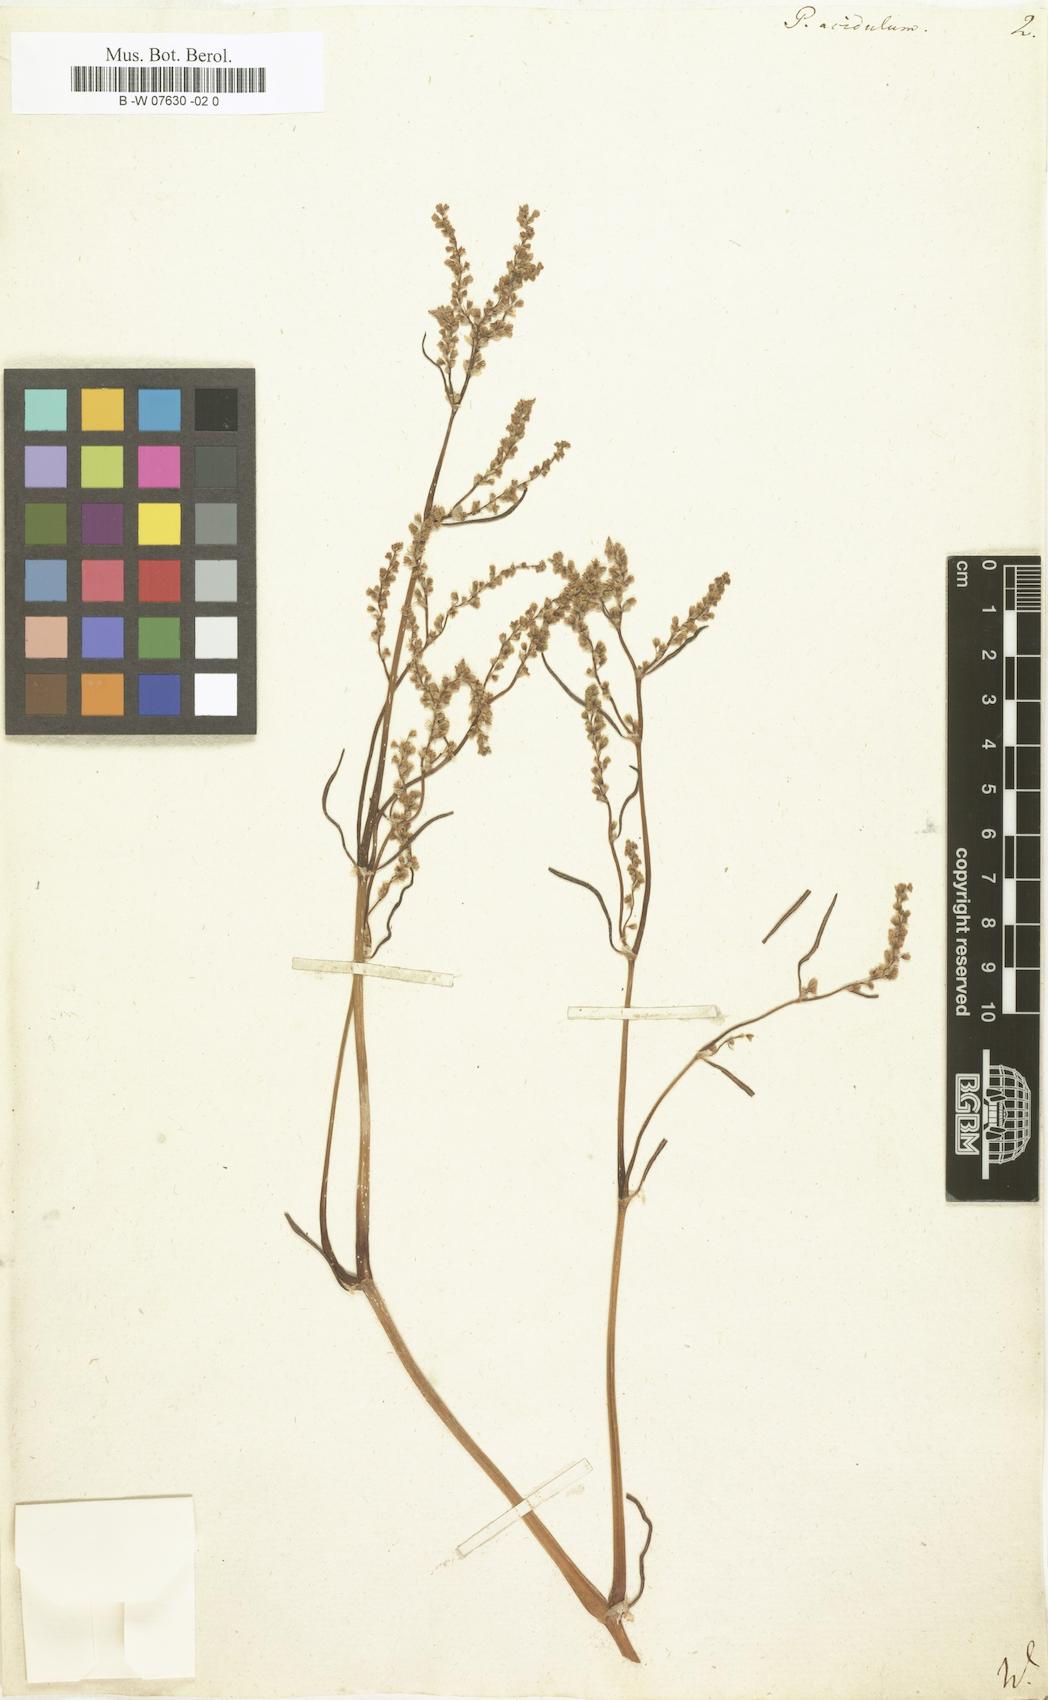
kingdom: Plantae
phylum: Tracheophyta
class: Magnoliopsida
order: Caryophyllales
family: Polygonaceae
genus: Persicaria
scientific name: Persicaria angustifolia
